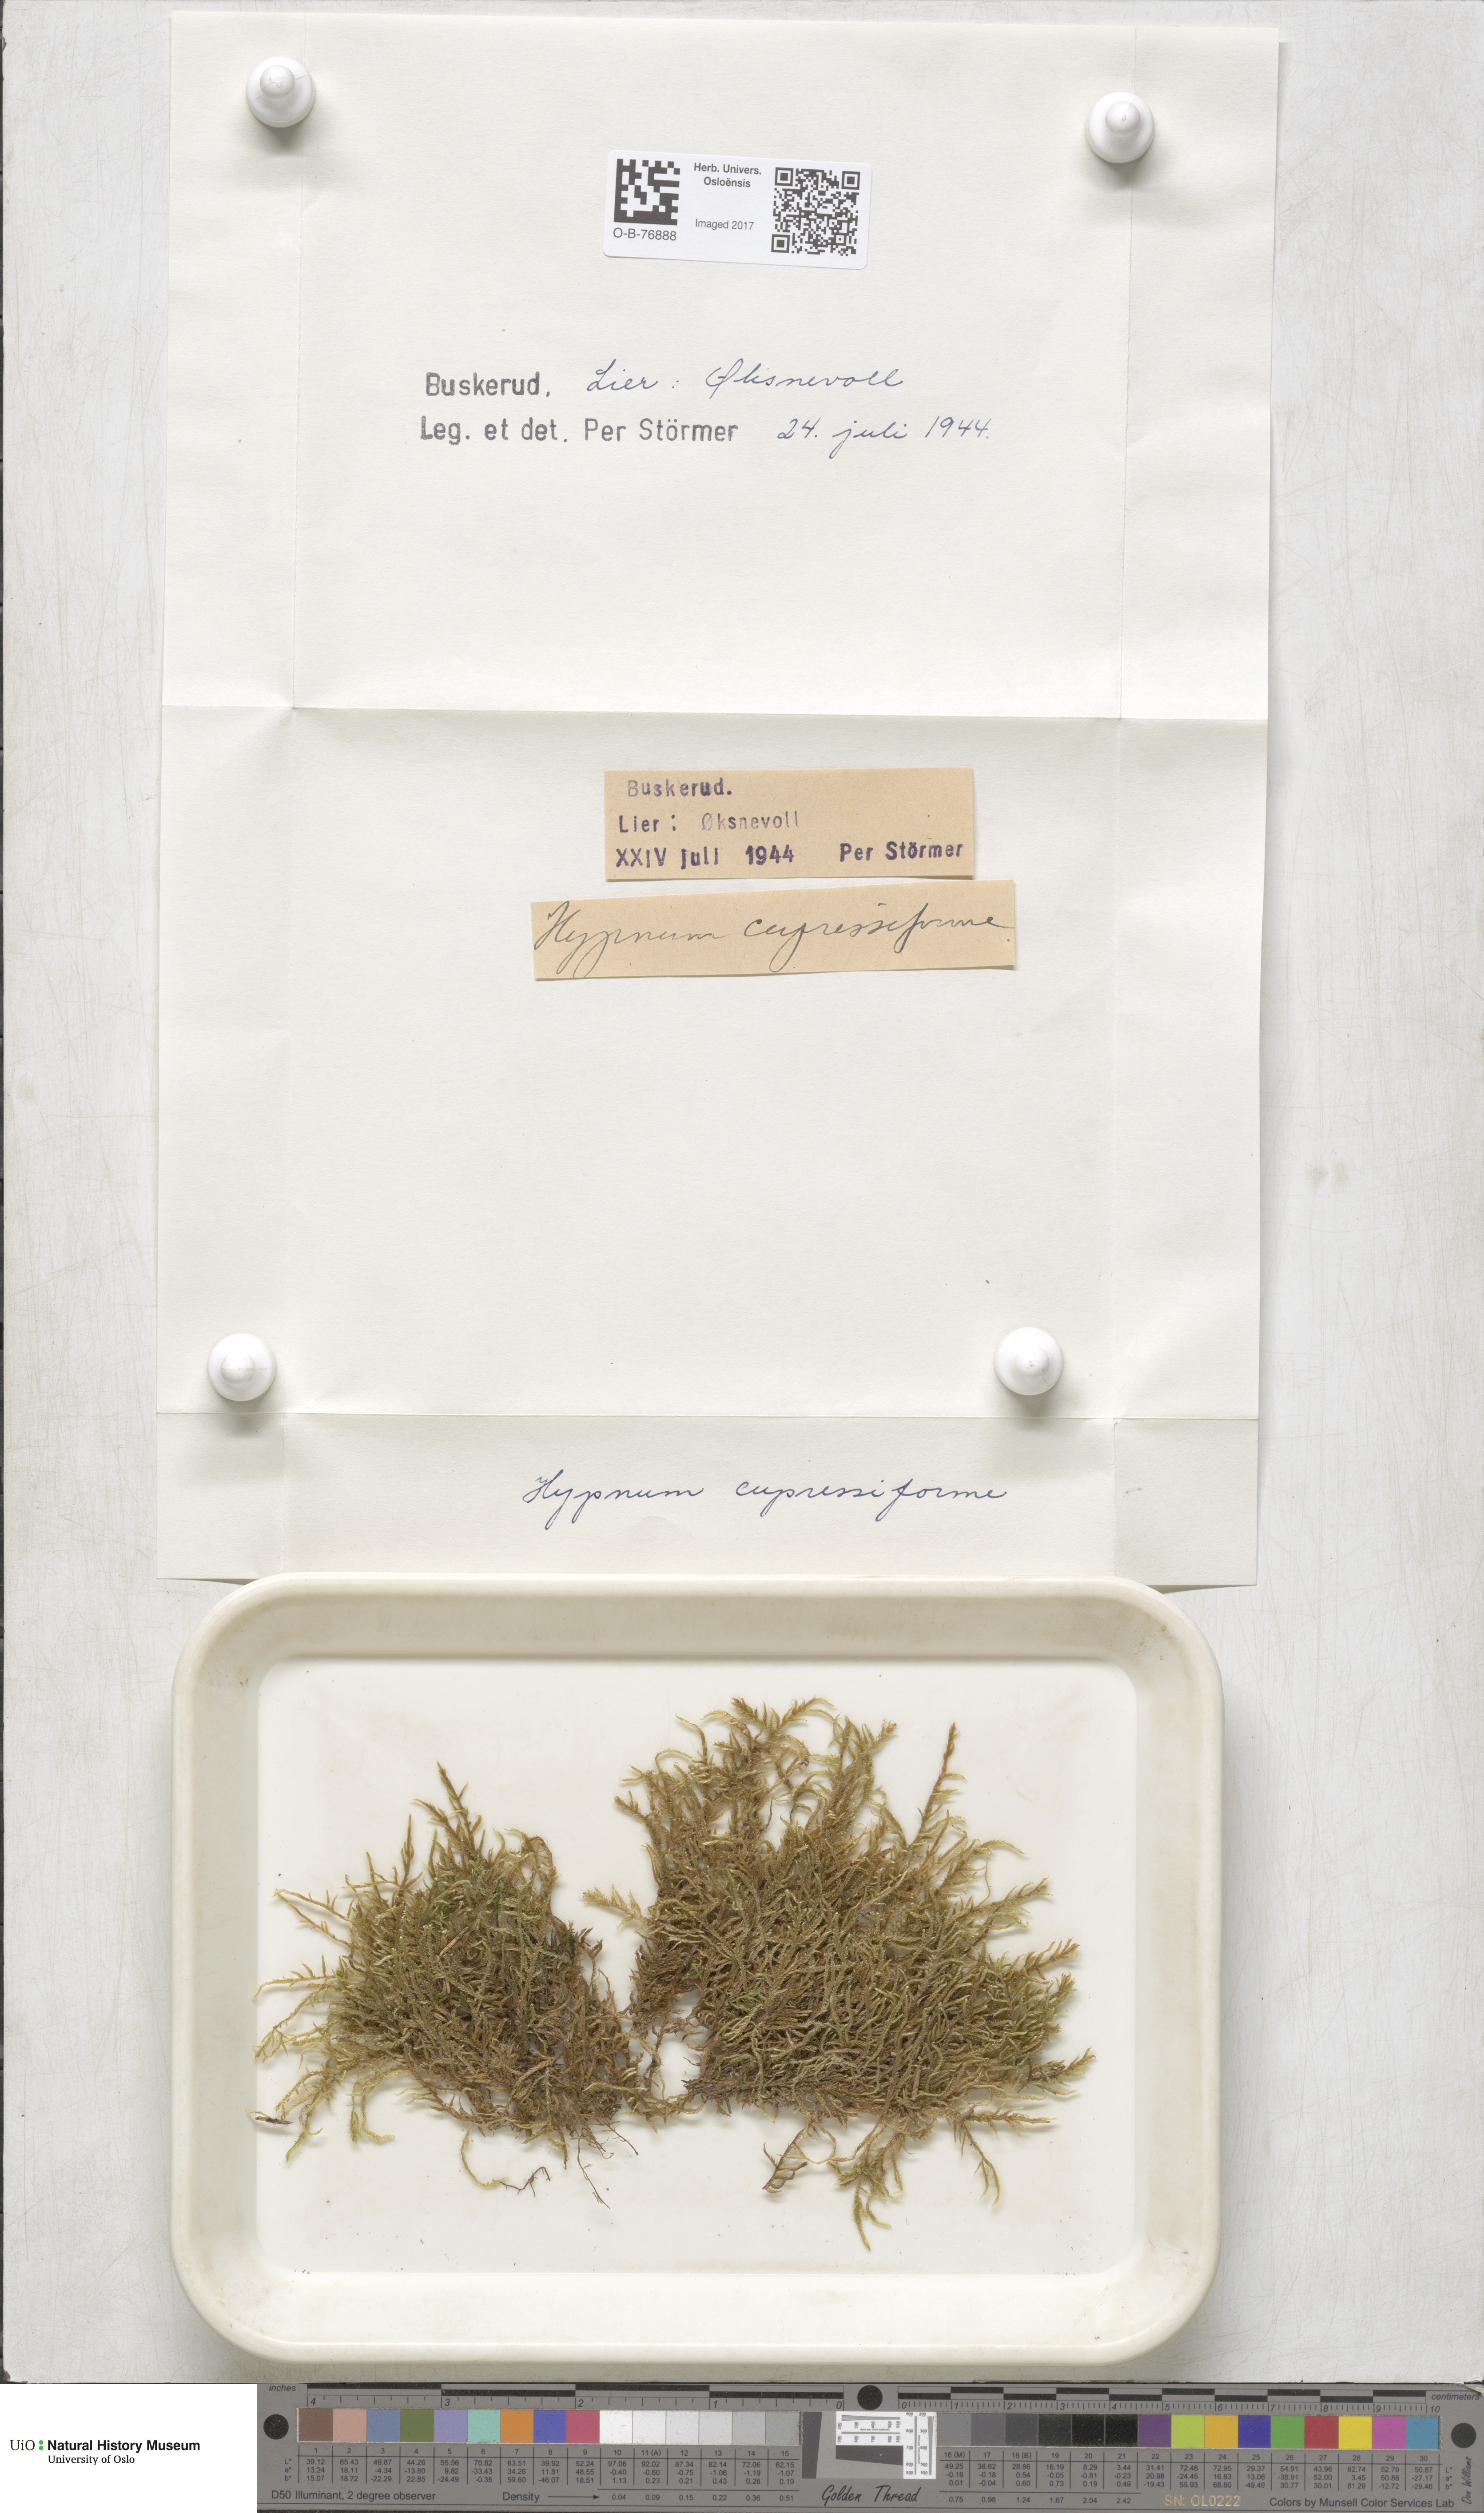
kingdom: Plantae
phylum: Bryophyta
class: Bryopsida
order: Hypnales
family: Hypnaceae
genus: Hypnum
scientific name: Hypnum cupressiforme
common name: Cypress-leaved plait-moss
